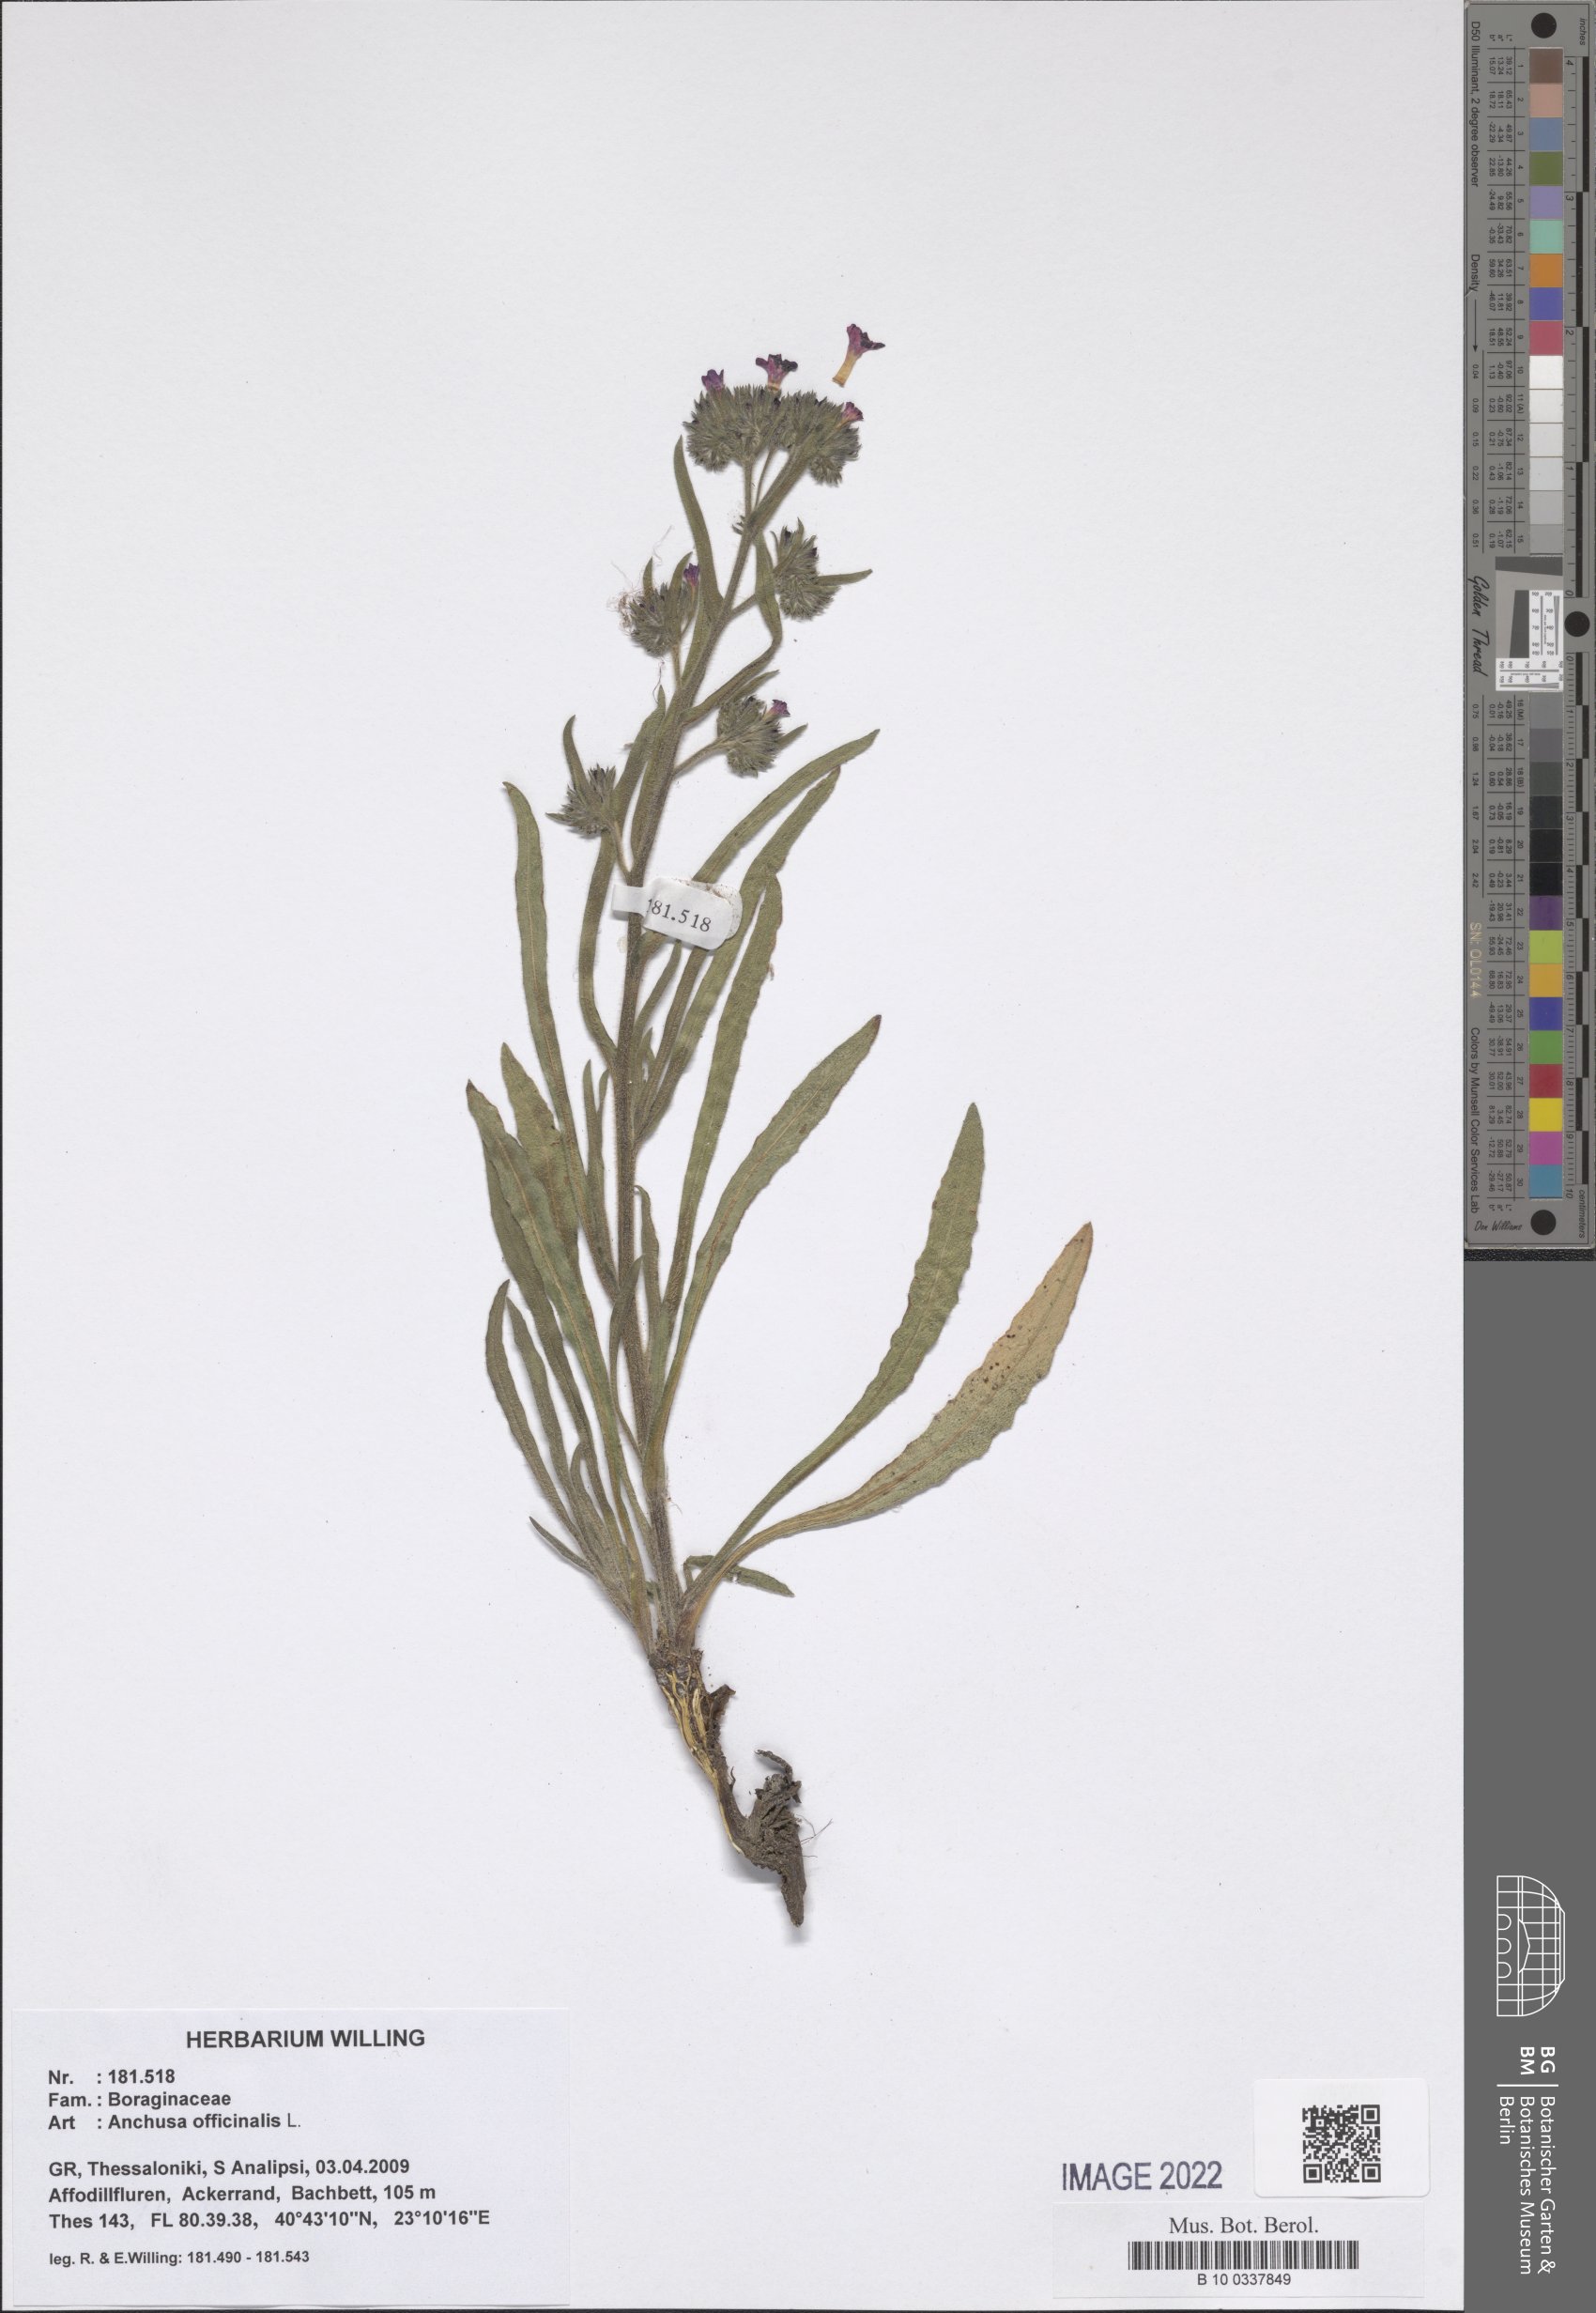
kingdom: Plantae
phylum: Tracheophyta
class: Magnoliopsida
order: Boraginales
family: Boraginaceae
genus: Anchusa
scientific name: Anchusa officinalis
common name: Alkanet
